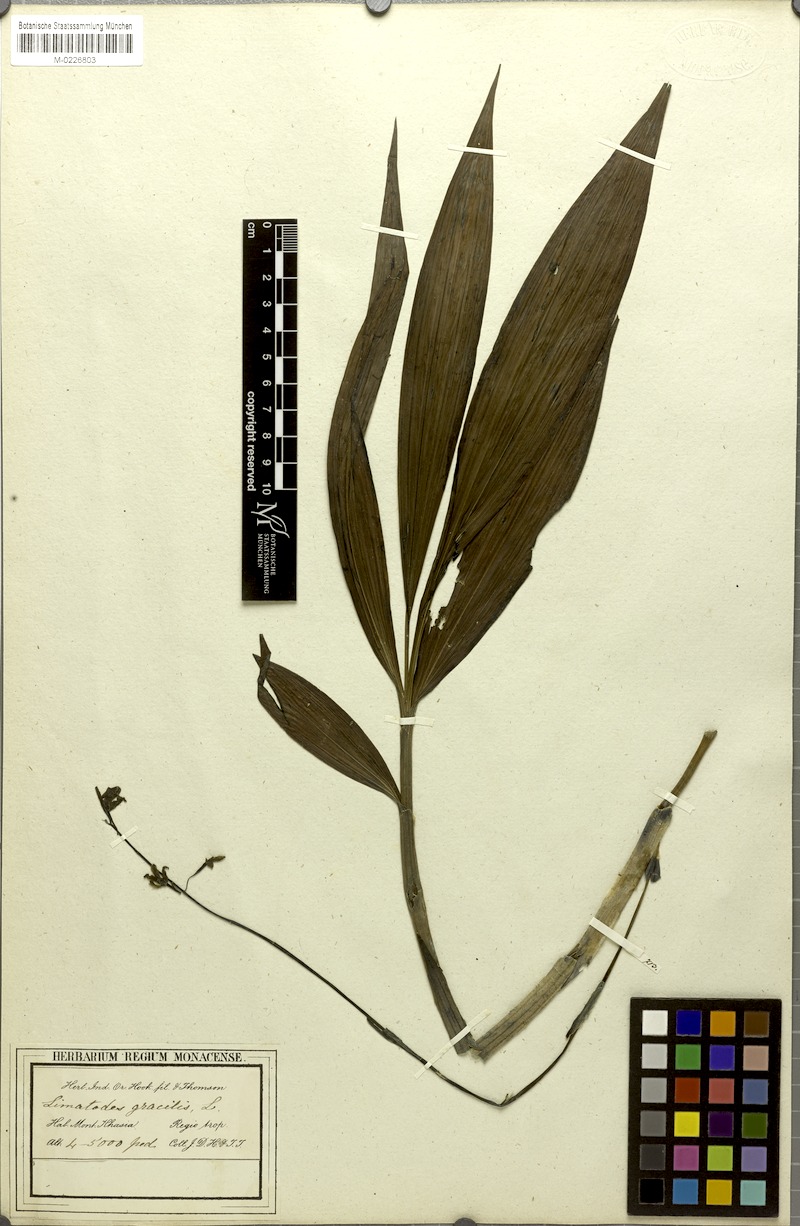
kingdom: Plantae
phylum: Tracheophyta
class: Liliopsida
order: Asparagales
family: Orchidaceae
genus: Calanthe
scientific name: Calanthe obcordata
